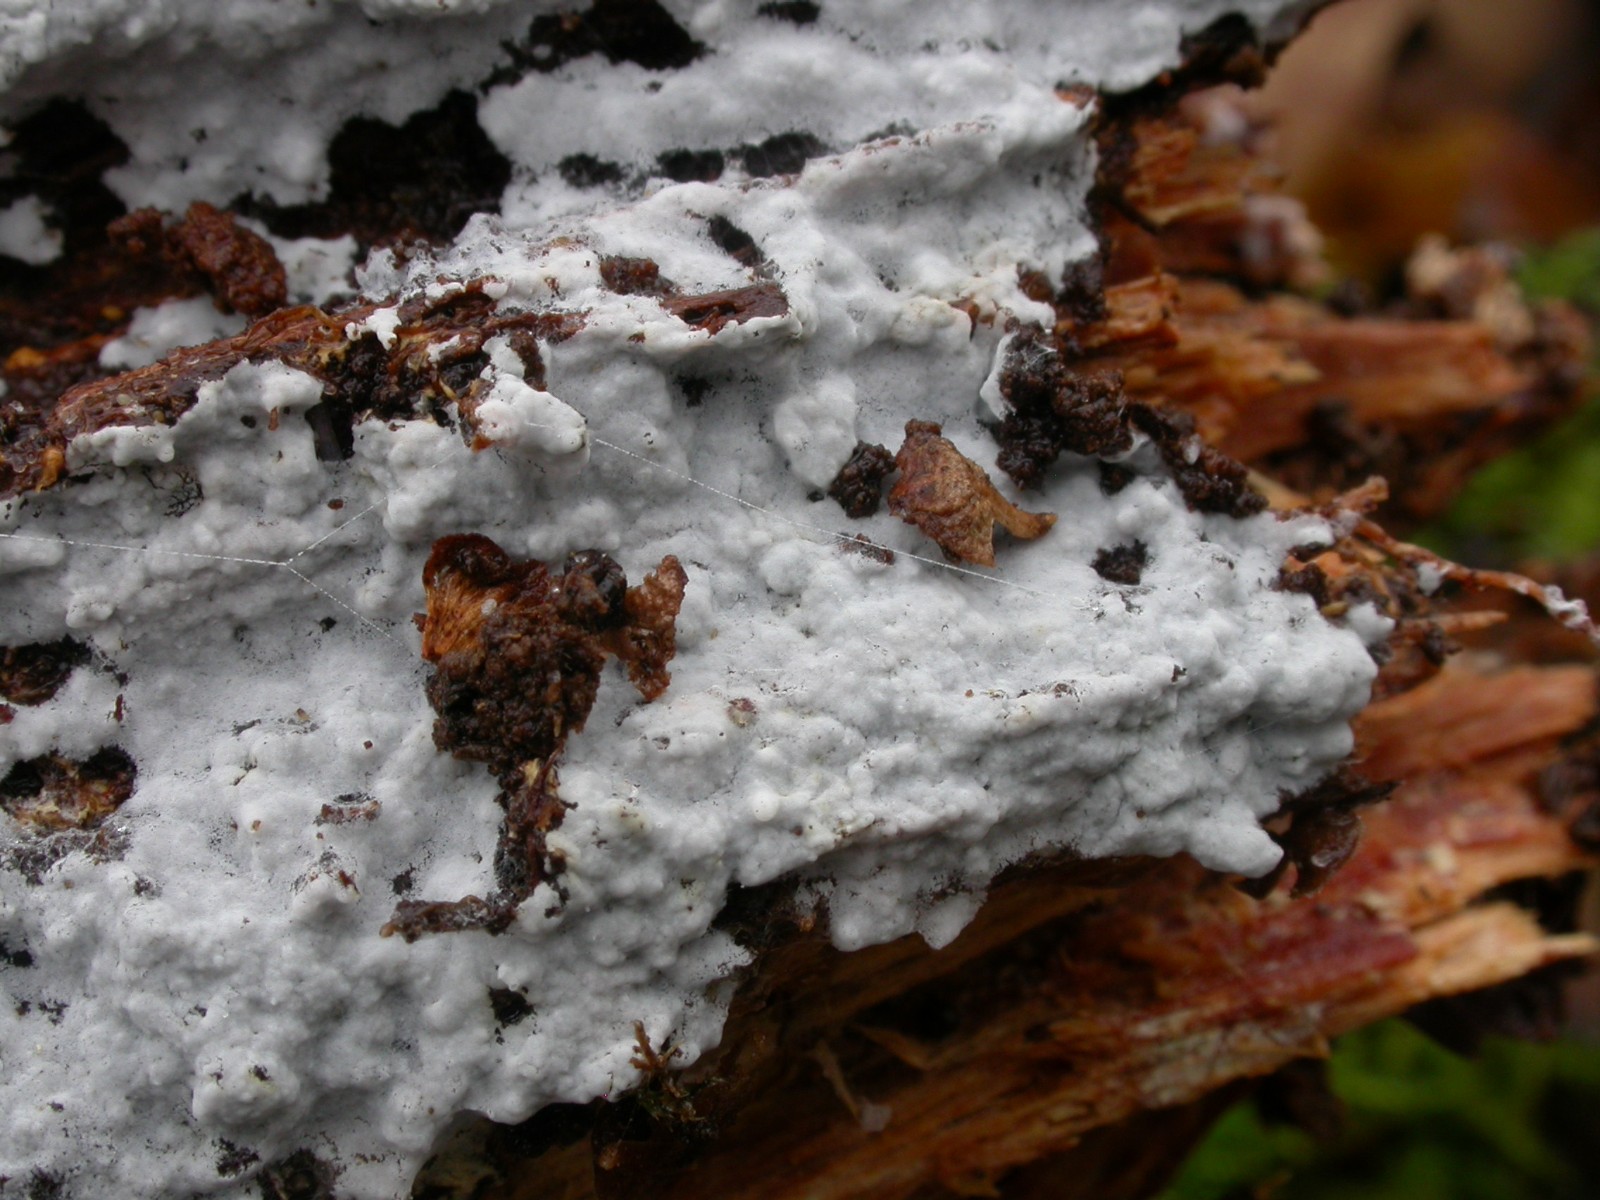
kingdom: Fungi
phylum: Basidiomycota
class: Agaricomycetes
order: Atheliales
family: Atheliaceae
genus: Athelia
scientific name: Athelia epiphylla
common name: almindelig barkhinde
